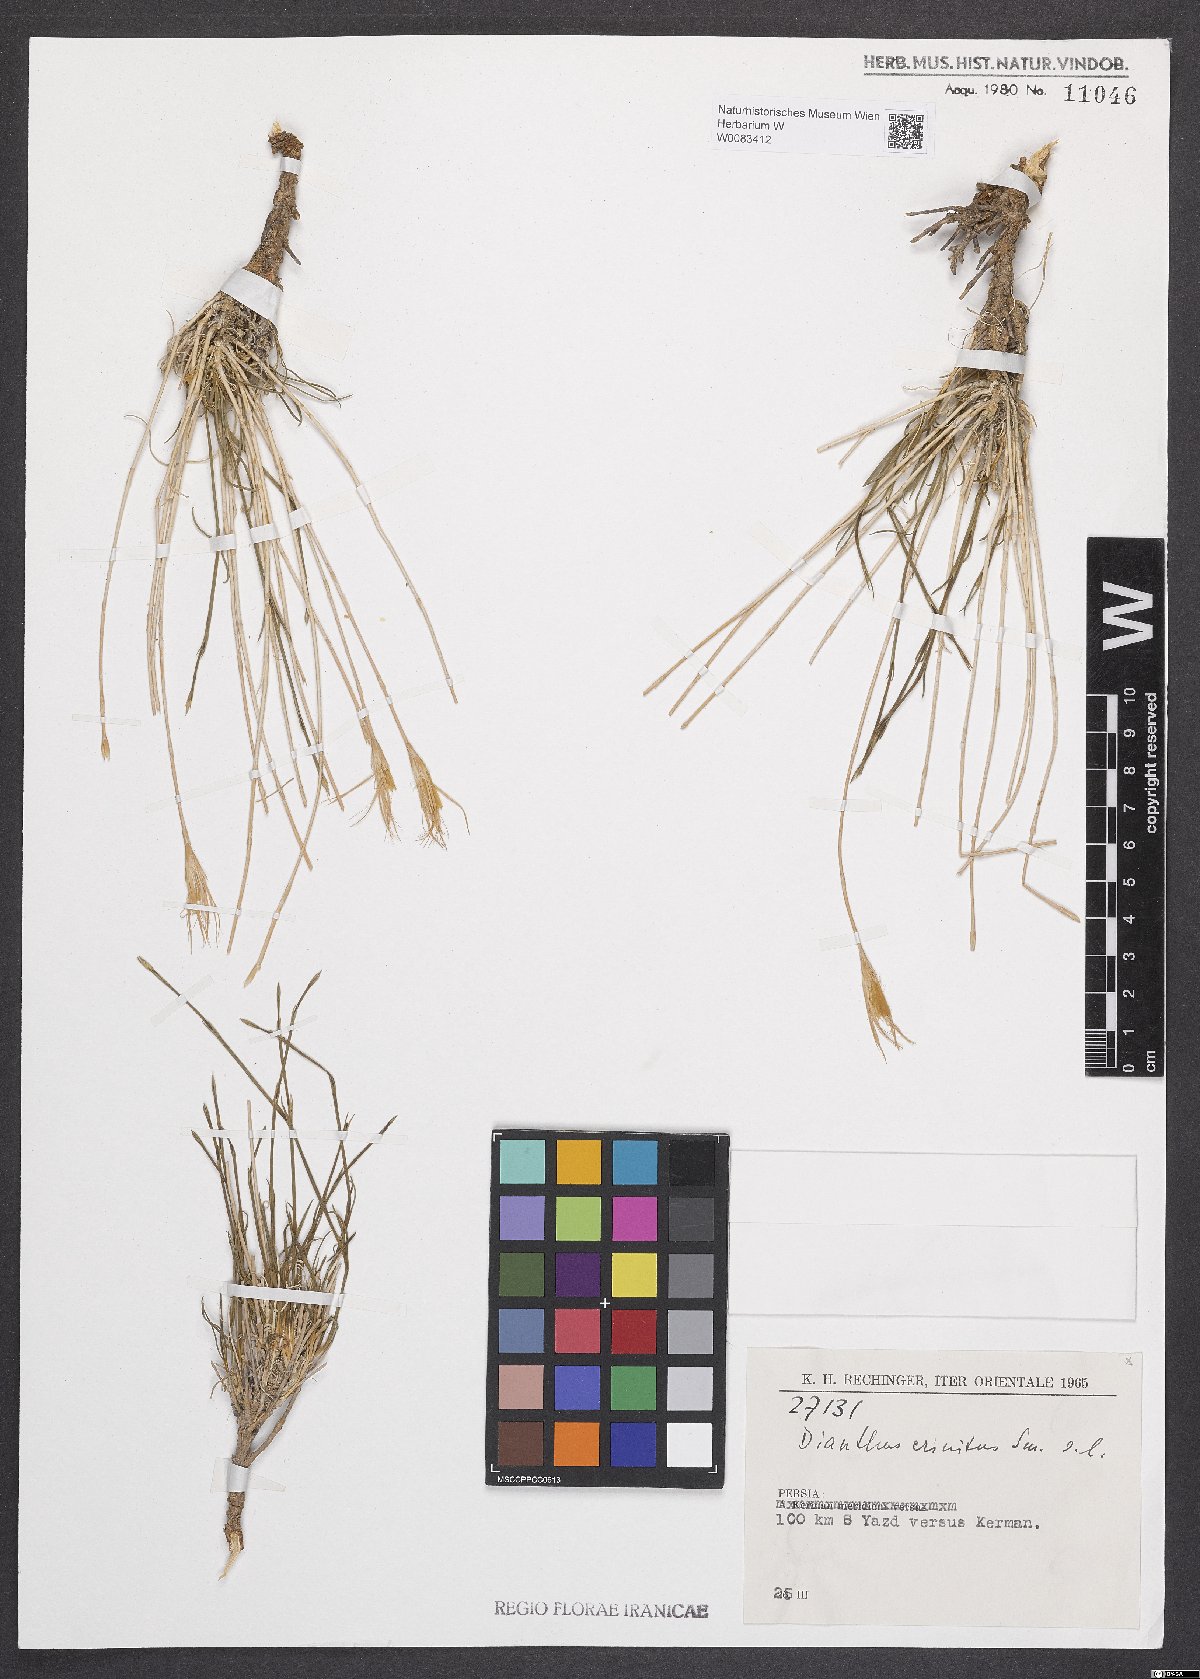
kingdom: Plantae
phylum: Tracheophyta
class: Magnoliopsida
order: Caryophyllales
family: Caryophyllaceae
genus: Dianthus
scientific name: Dianthus crinitus
